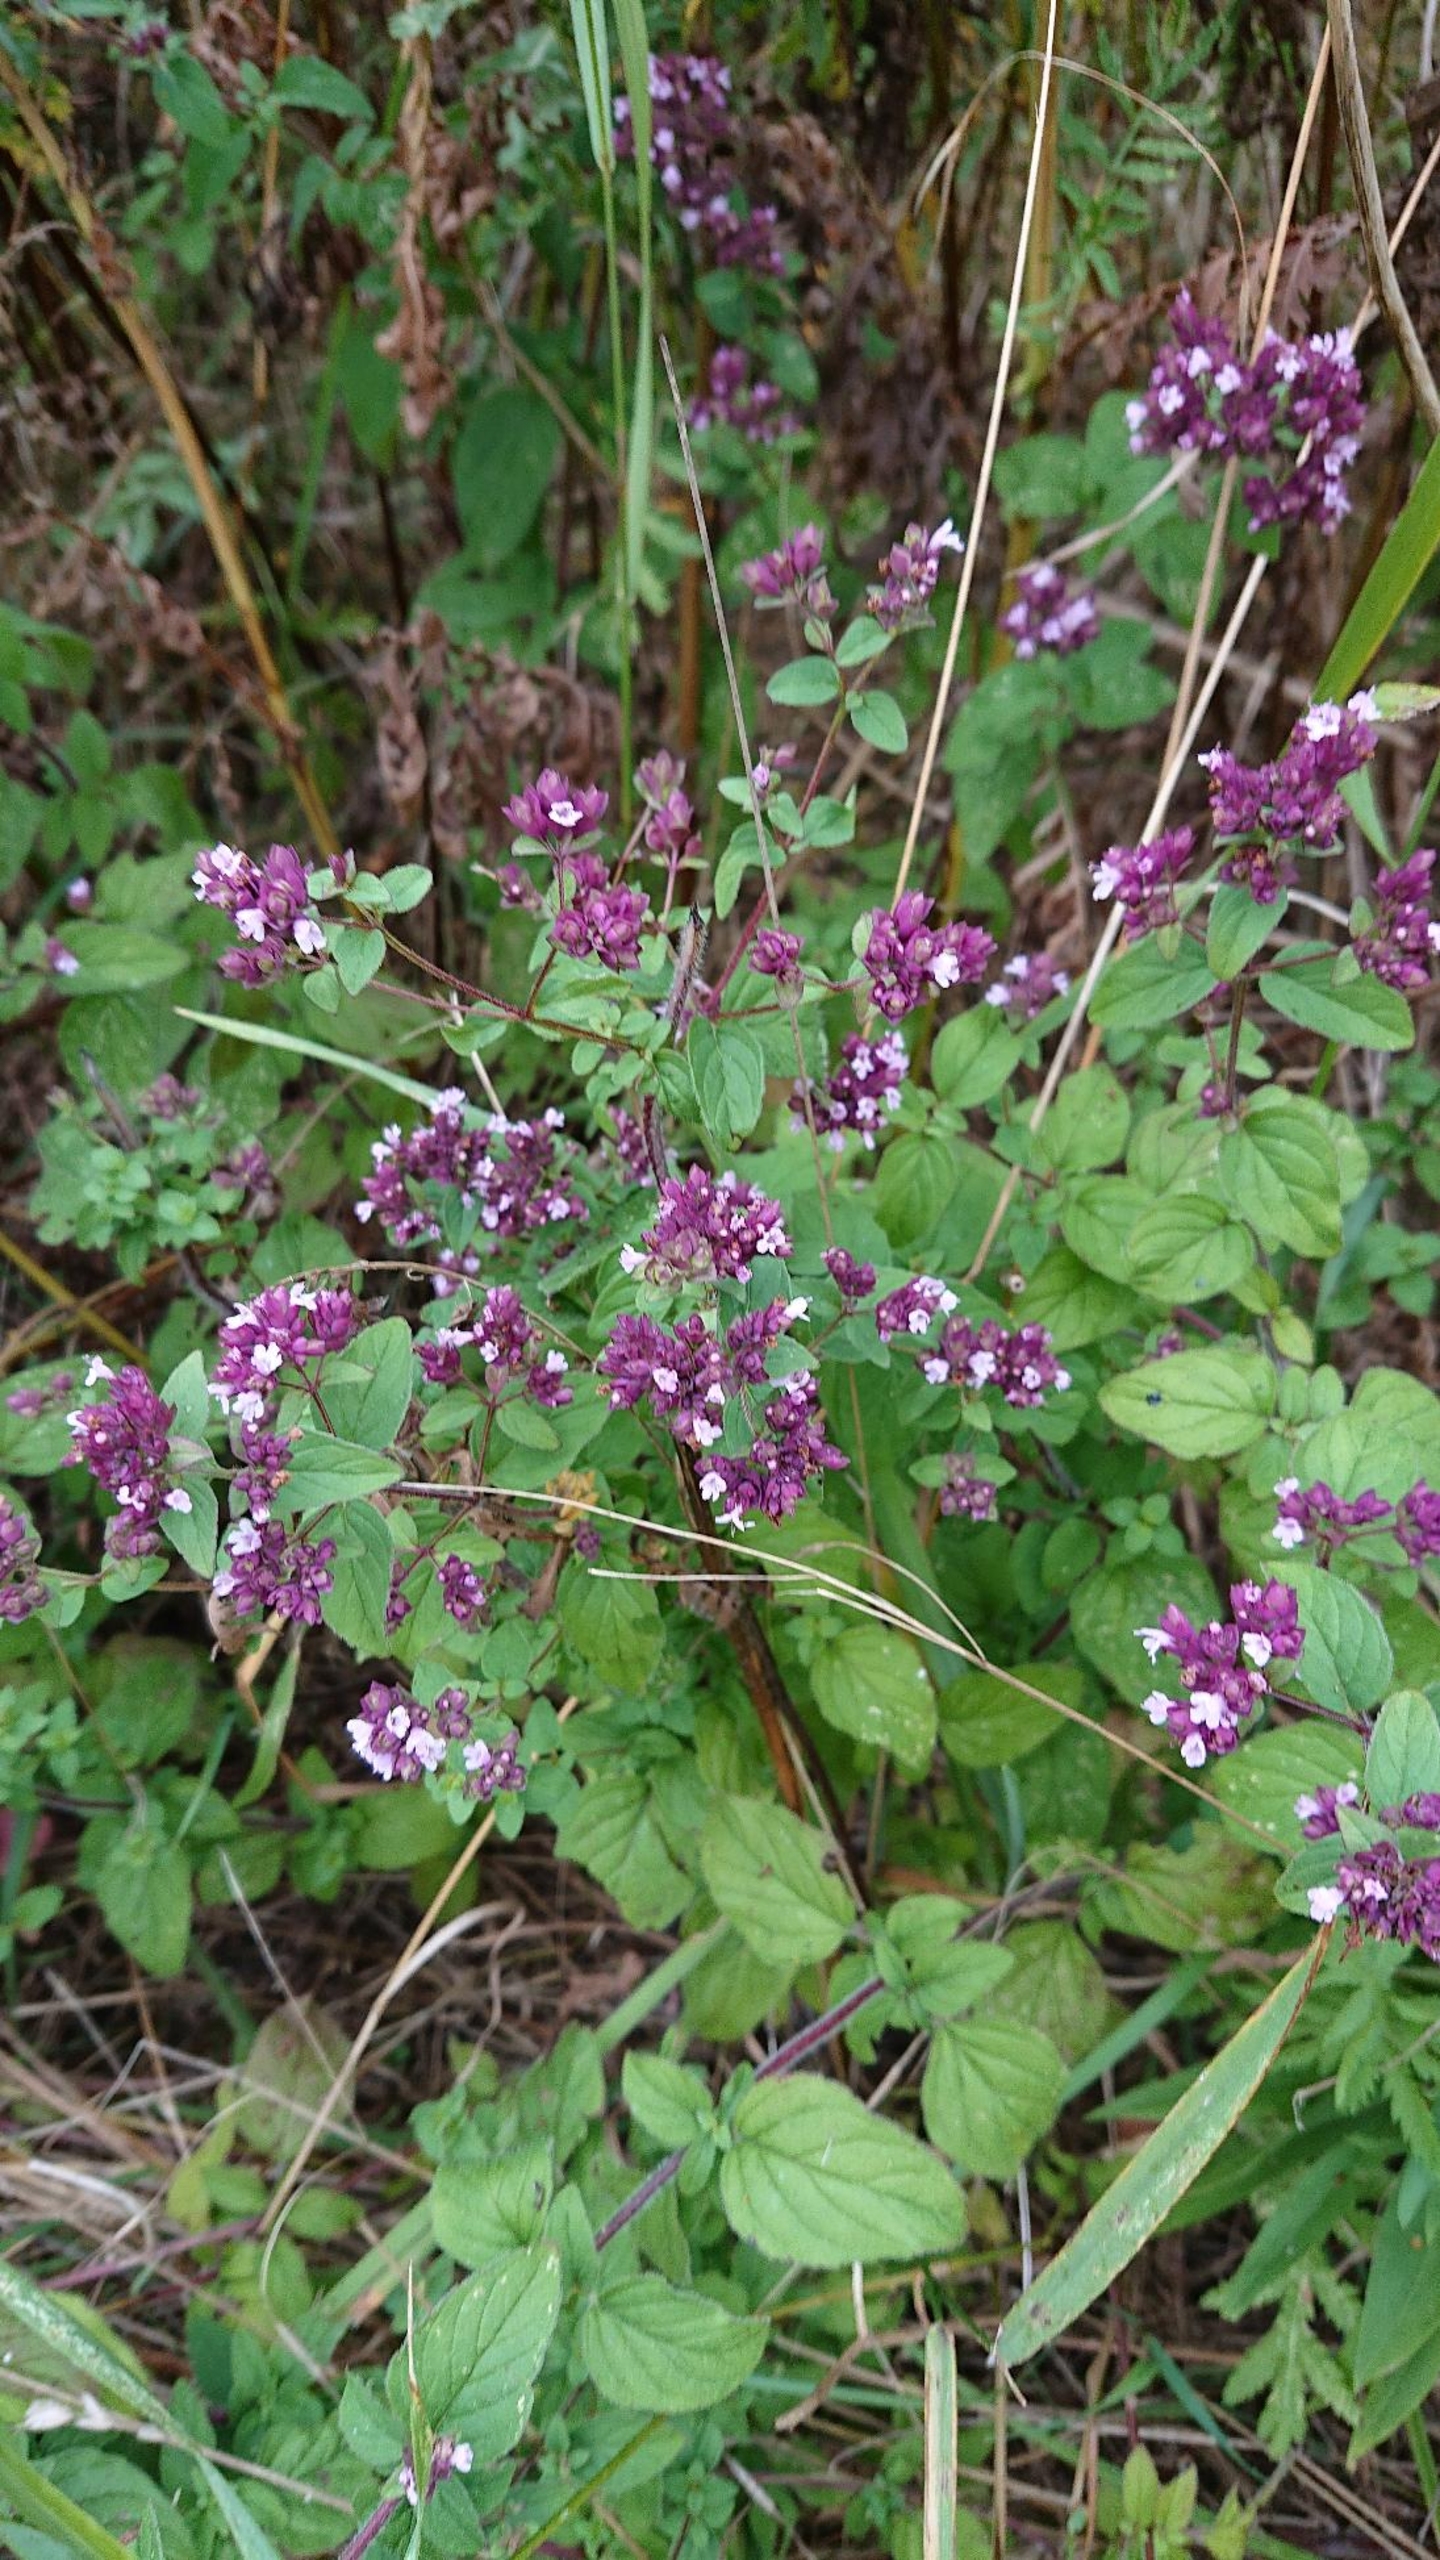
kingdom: Plantae
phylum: Tracheophyta
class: Magnoliopsida
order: Lamiales
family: Lamiaceae
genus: Origanum
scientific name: Origanum vulgare
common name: Merian
